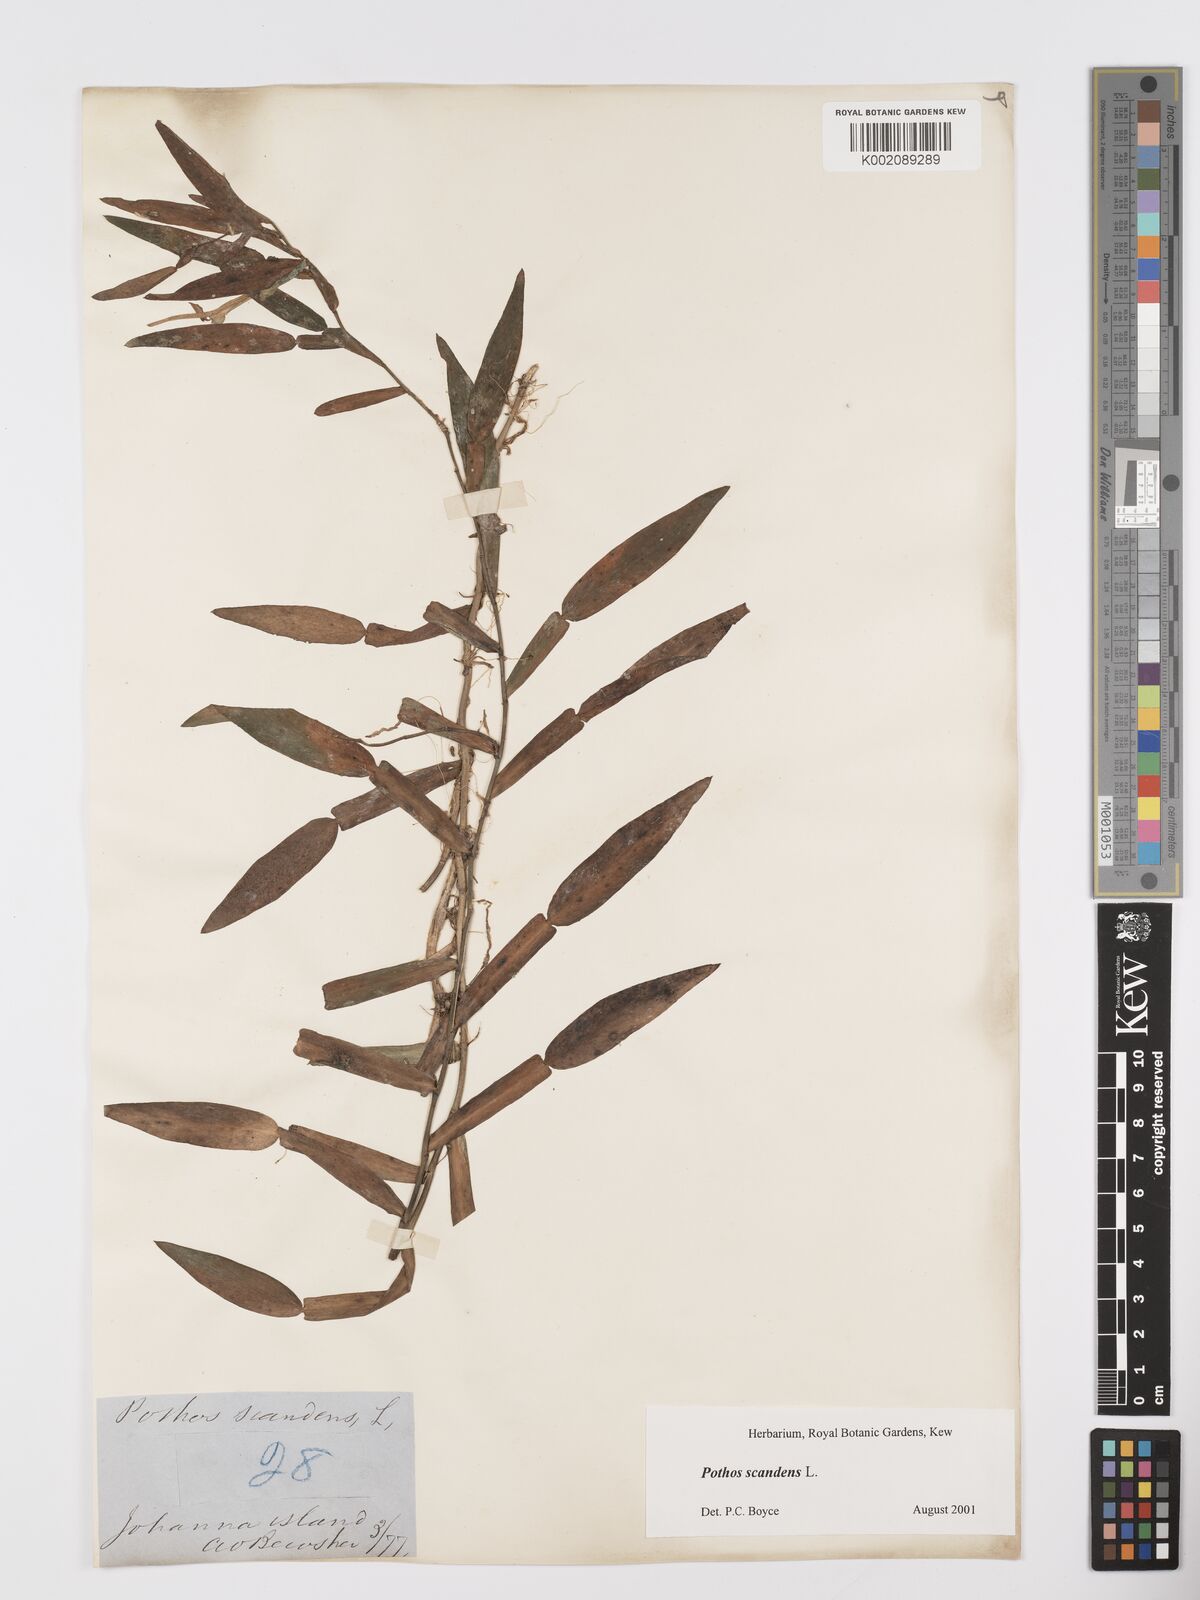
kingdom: Plantae
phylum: Tracheophyta
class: Liliopsida
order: Alismatales
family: Araceae
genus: Pothos
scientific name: Pothos scandens
